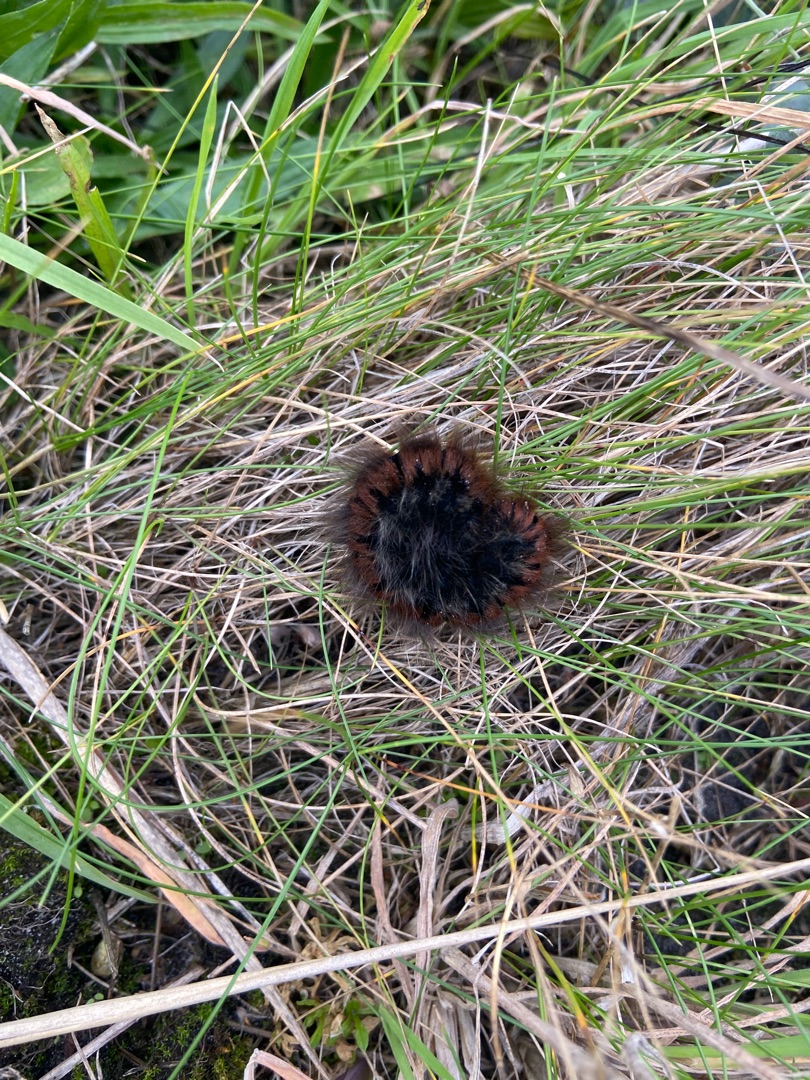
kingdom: Animalia
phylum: Arthropoda
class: Insecta
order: Lepidoptera
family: Lasiocampidae
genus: Macrothylacia
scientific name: Macrothylacia rubi
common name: Brombærspinder
